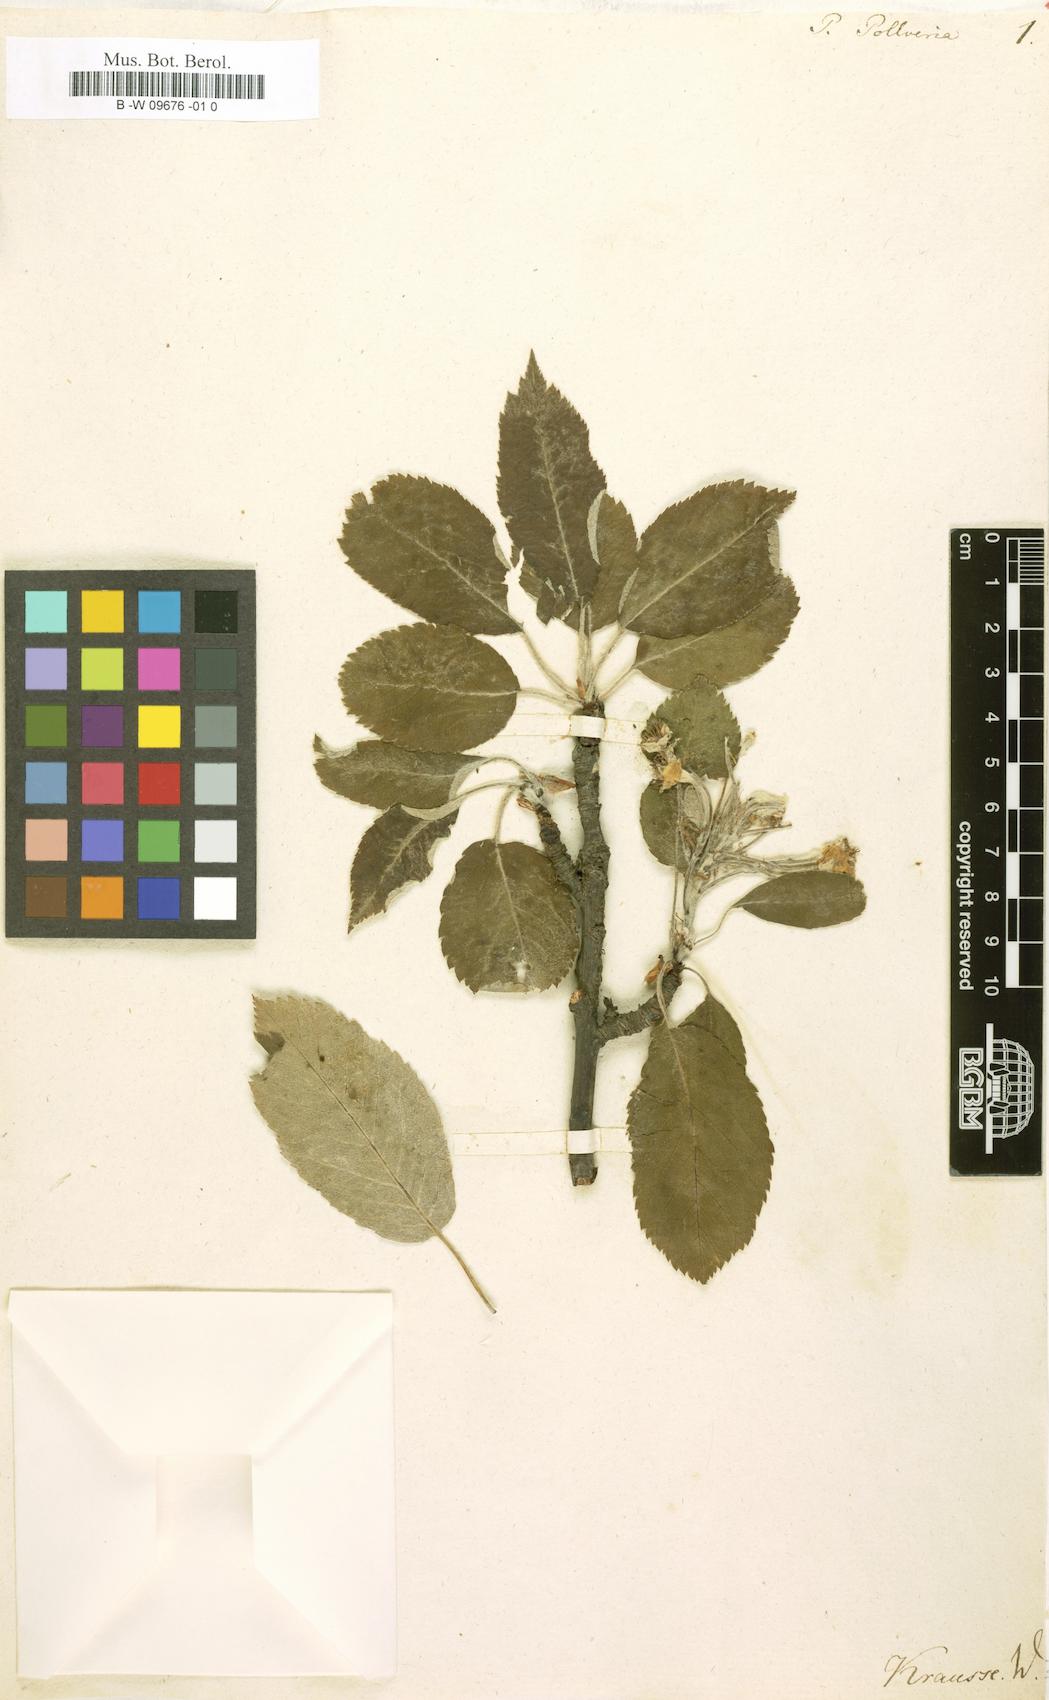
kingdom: Plantae
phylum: Tracheophyta
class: Magnoliopsida
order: Rosales
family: Rosaceae
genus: Pyraria
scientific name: Pyraria irregularis
